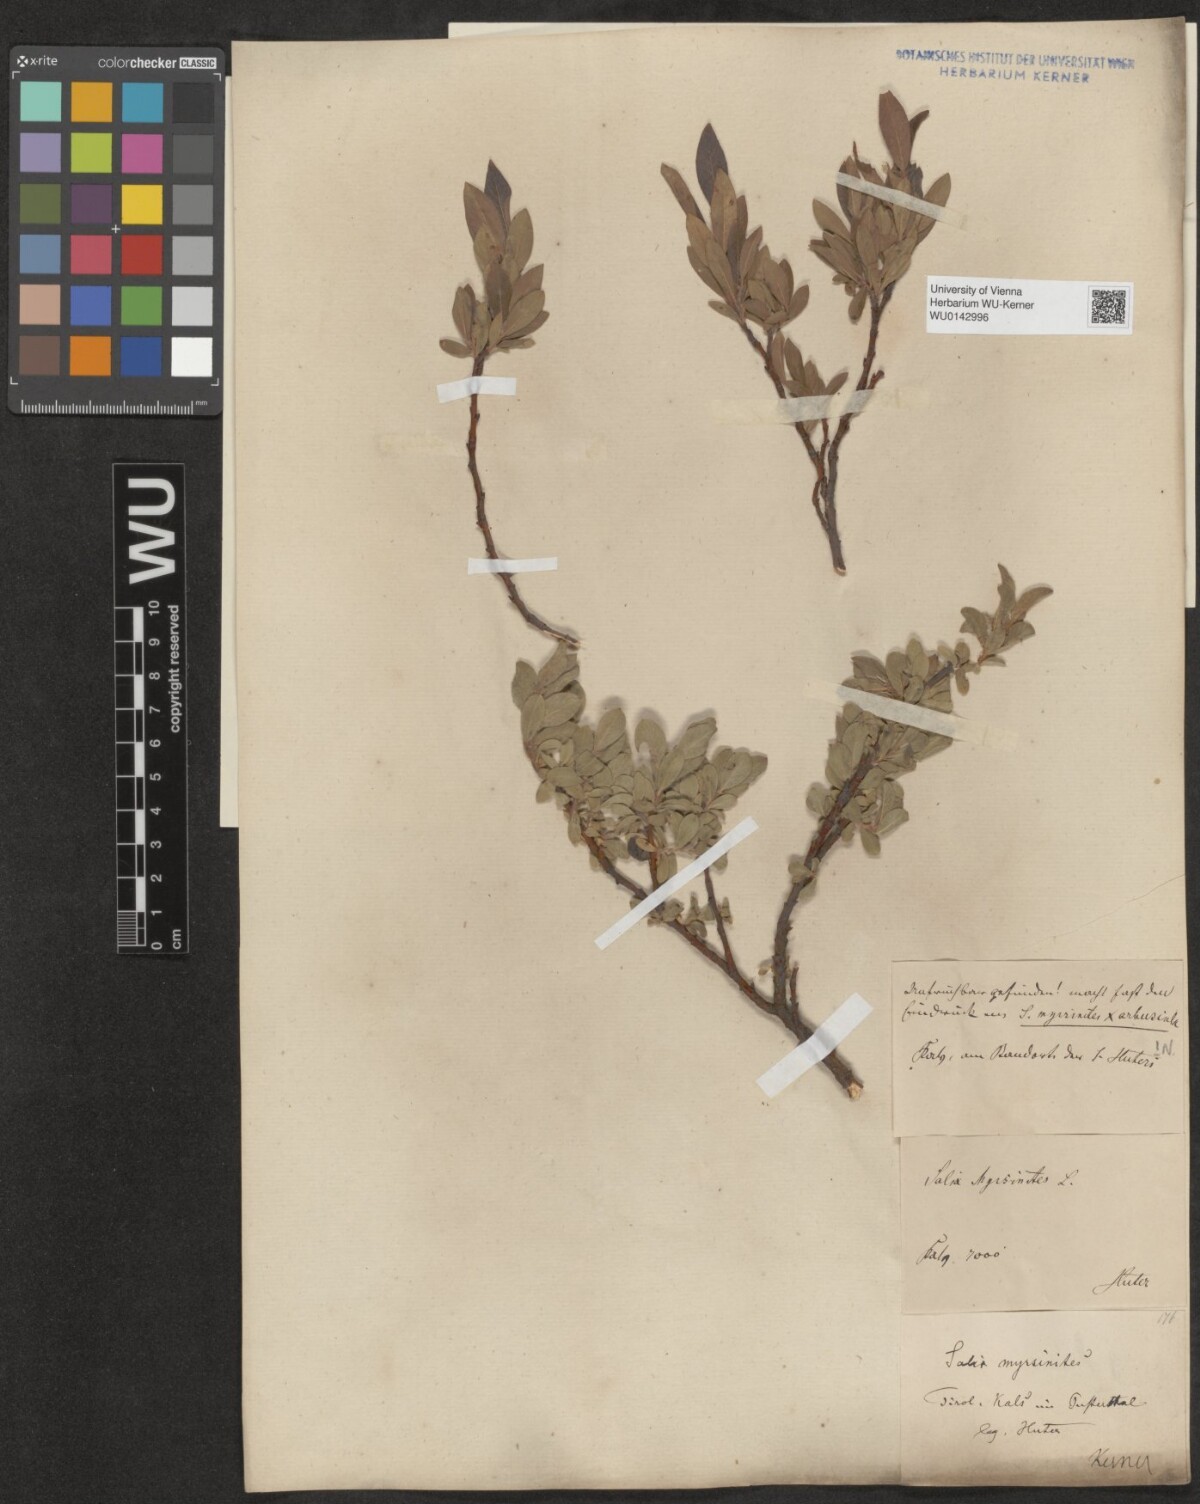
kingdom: Plantae
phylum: Tracheophyta
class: Magnoliopsida
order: Malpighiales
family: Salicaceae
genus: Salix
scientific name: Salix myrsinites
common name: Myrtle willow
